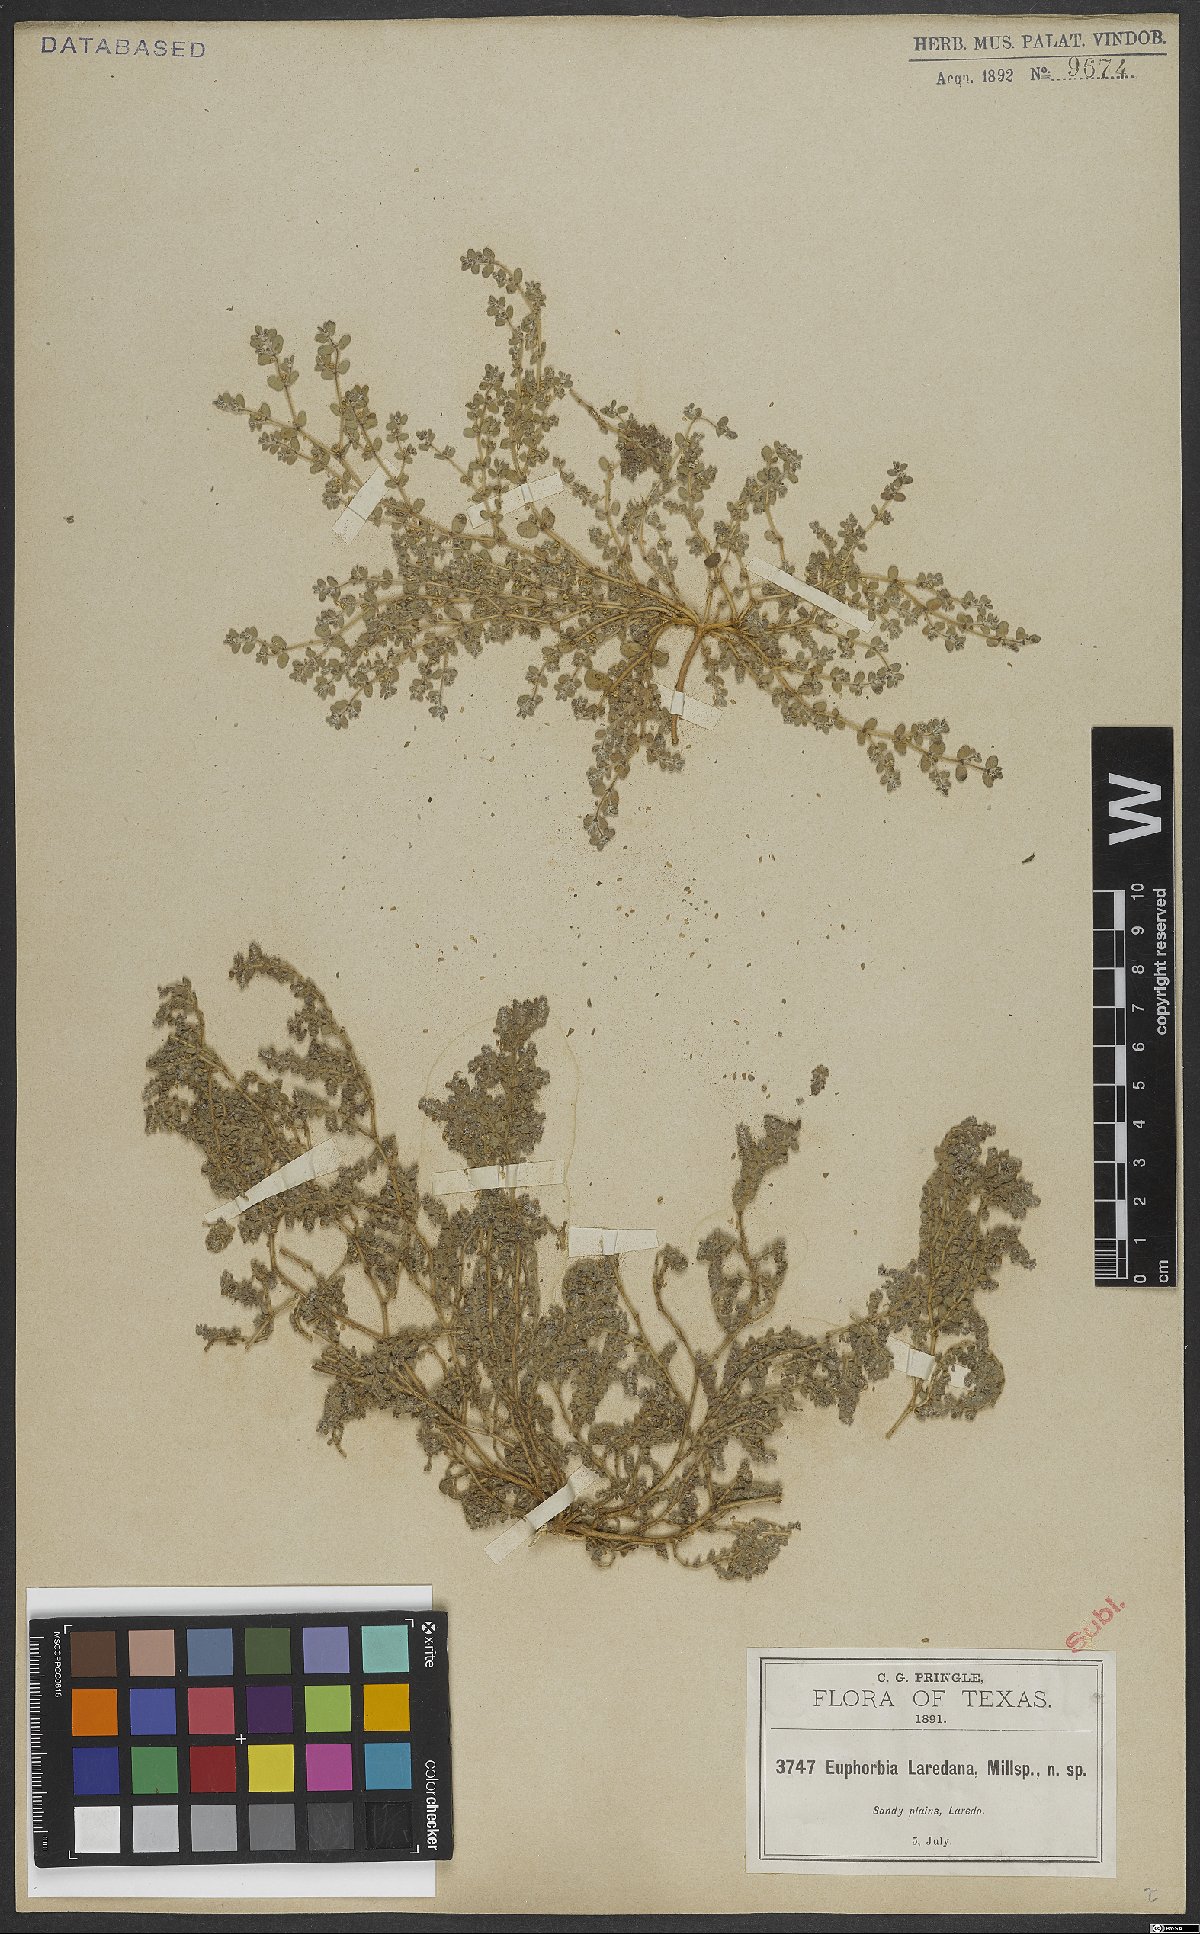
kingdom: Plantae
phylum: Tracheophyta
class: Magnoliopsida
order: Malpighiales
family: Euphorbiaceae
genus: Euphorbia
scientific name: Euphorbia laredana
